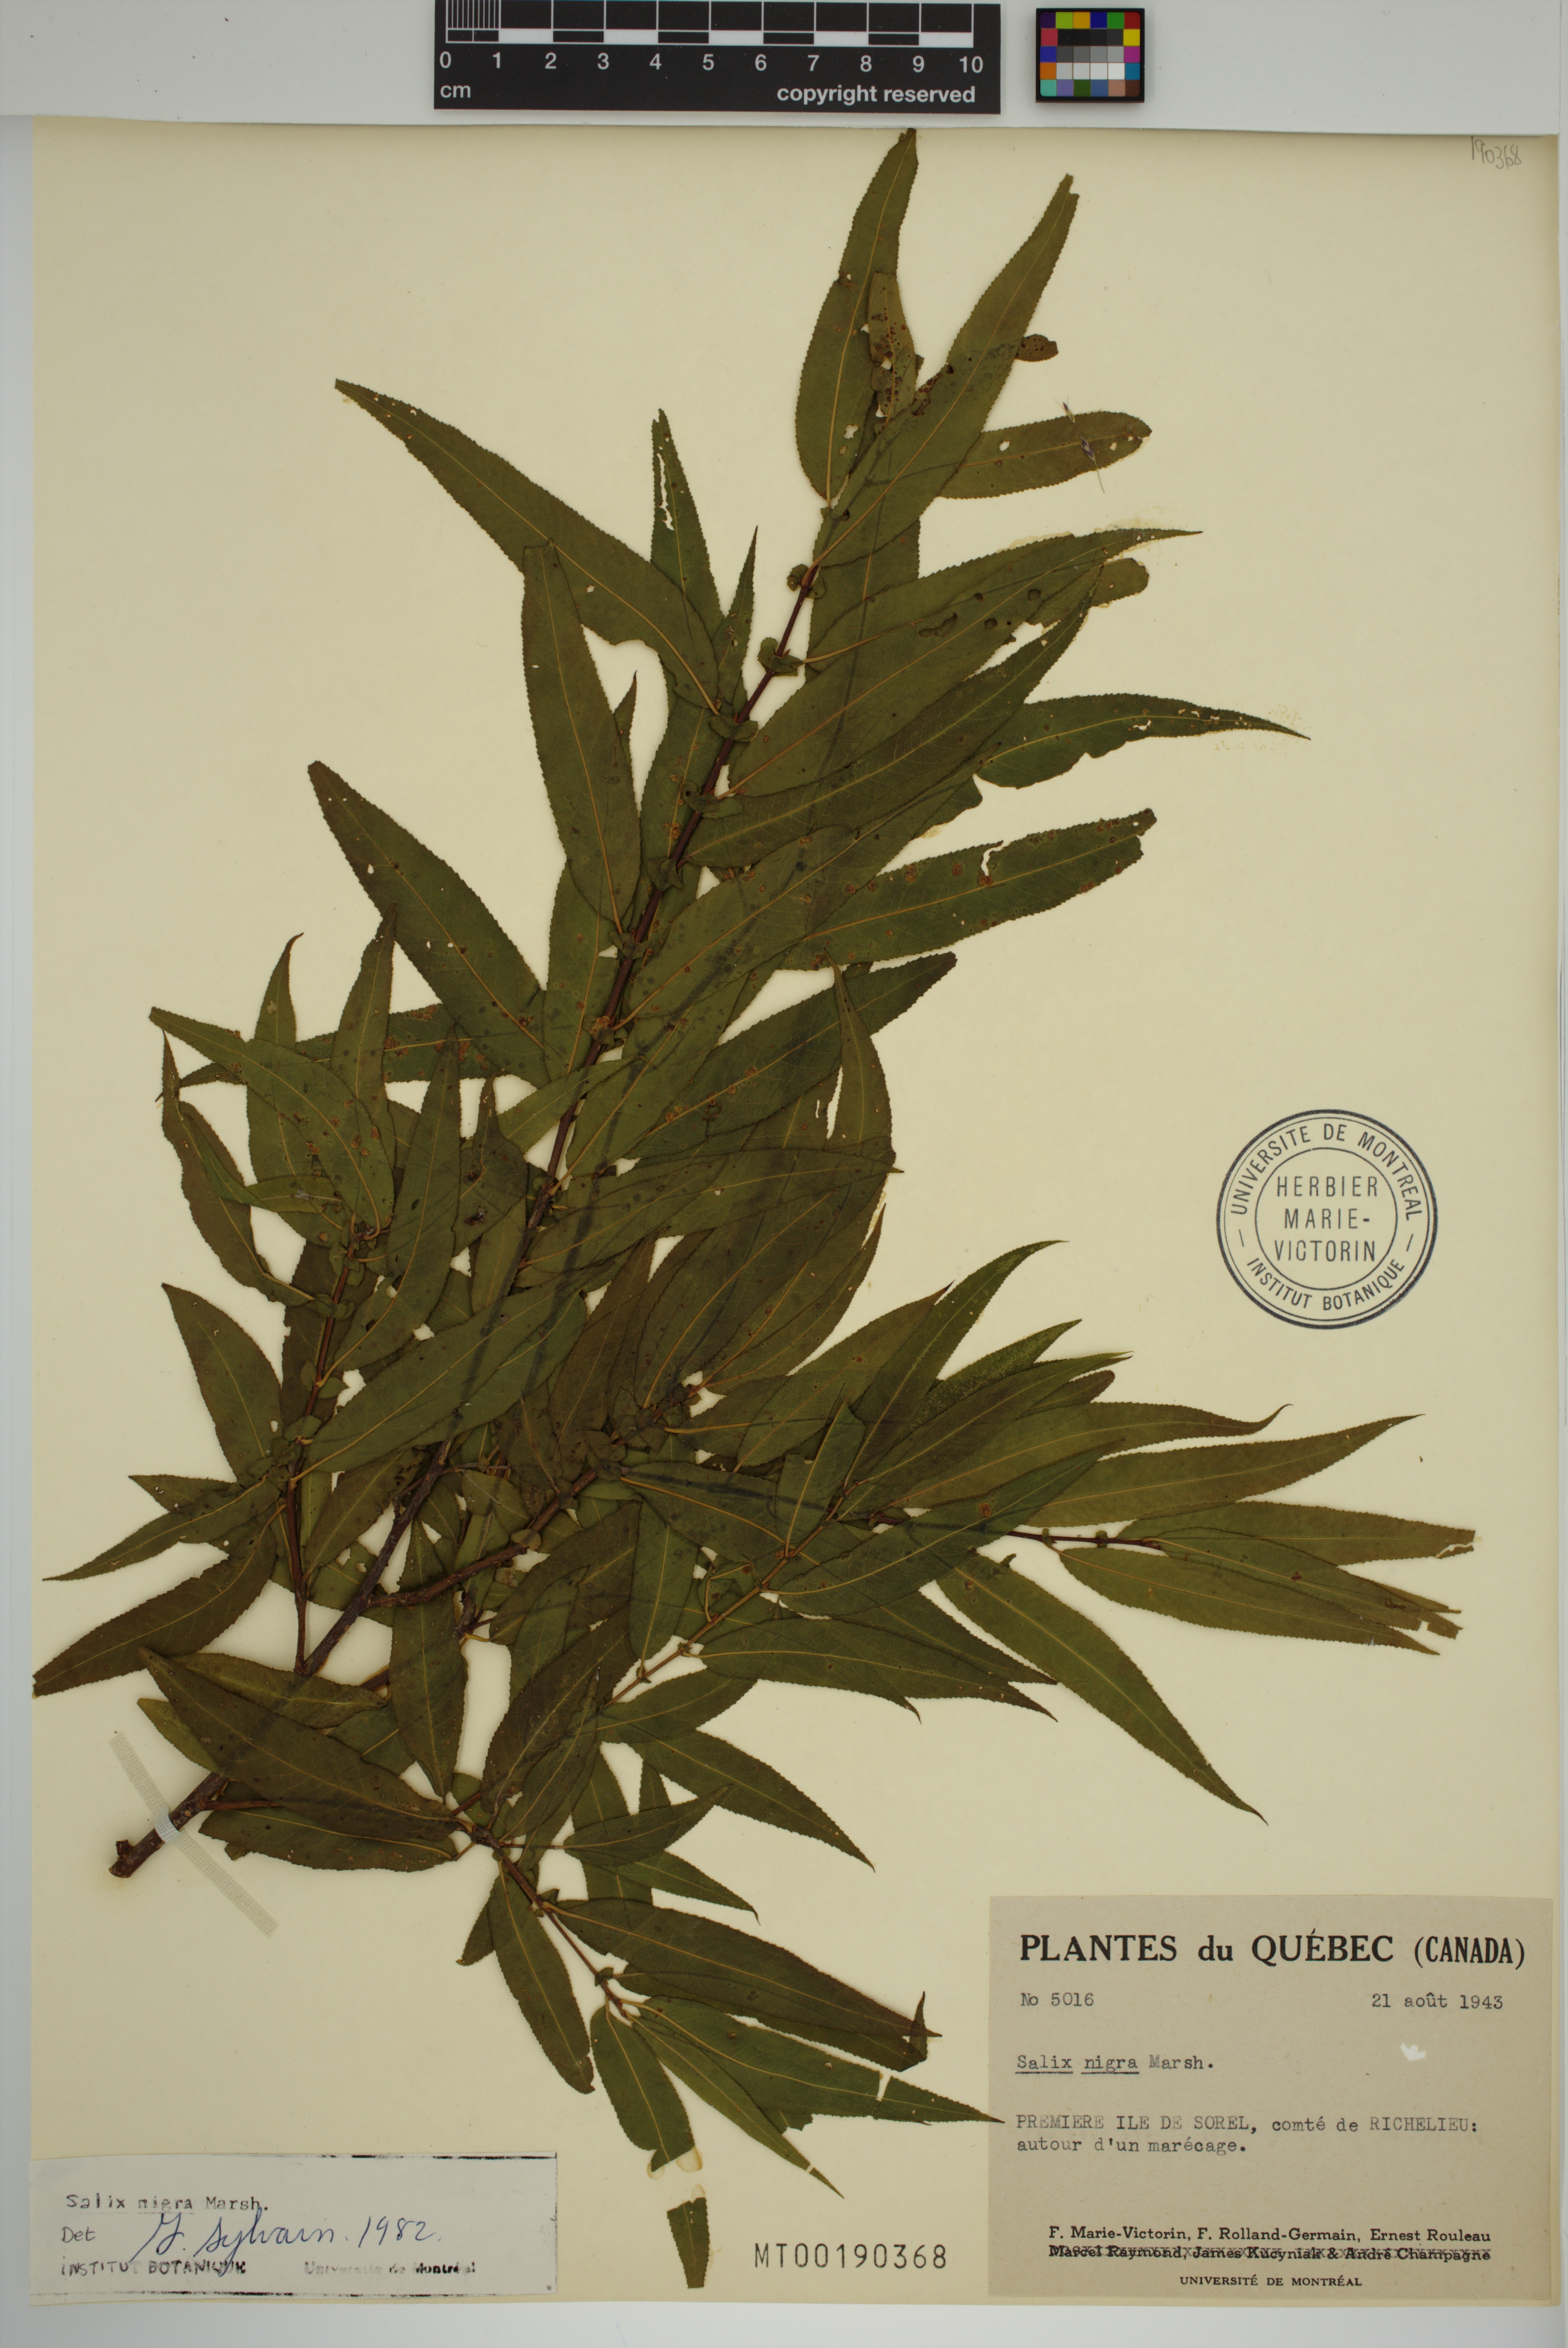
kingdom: Plantae
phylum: Tracheophyta
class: Magnoliopsida
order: Malpighiales
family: Salicaceae
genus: Salix
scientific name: Salix nigra
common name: Black willow
